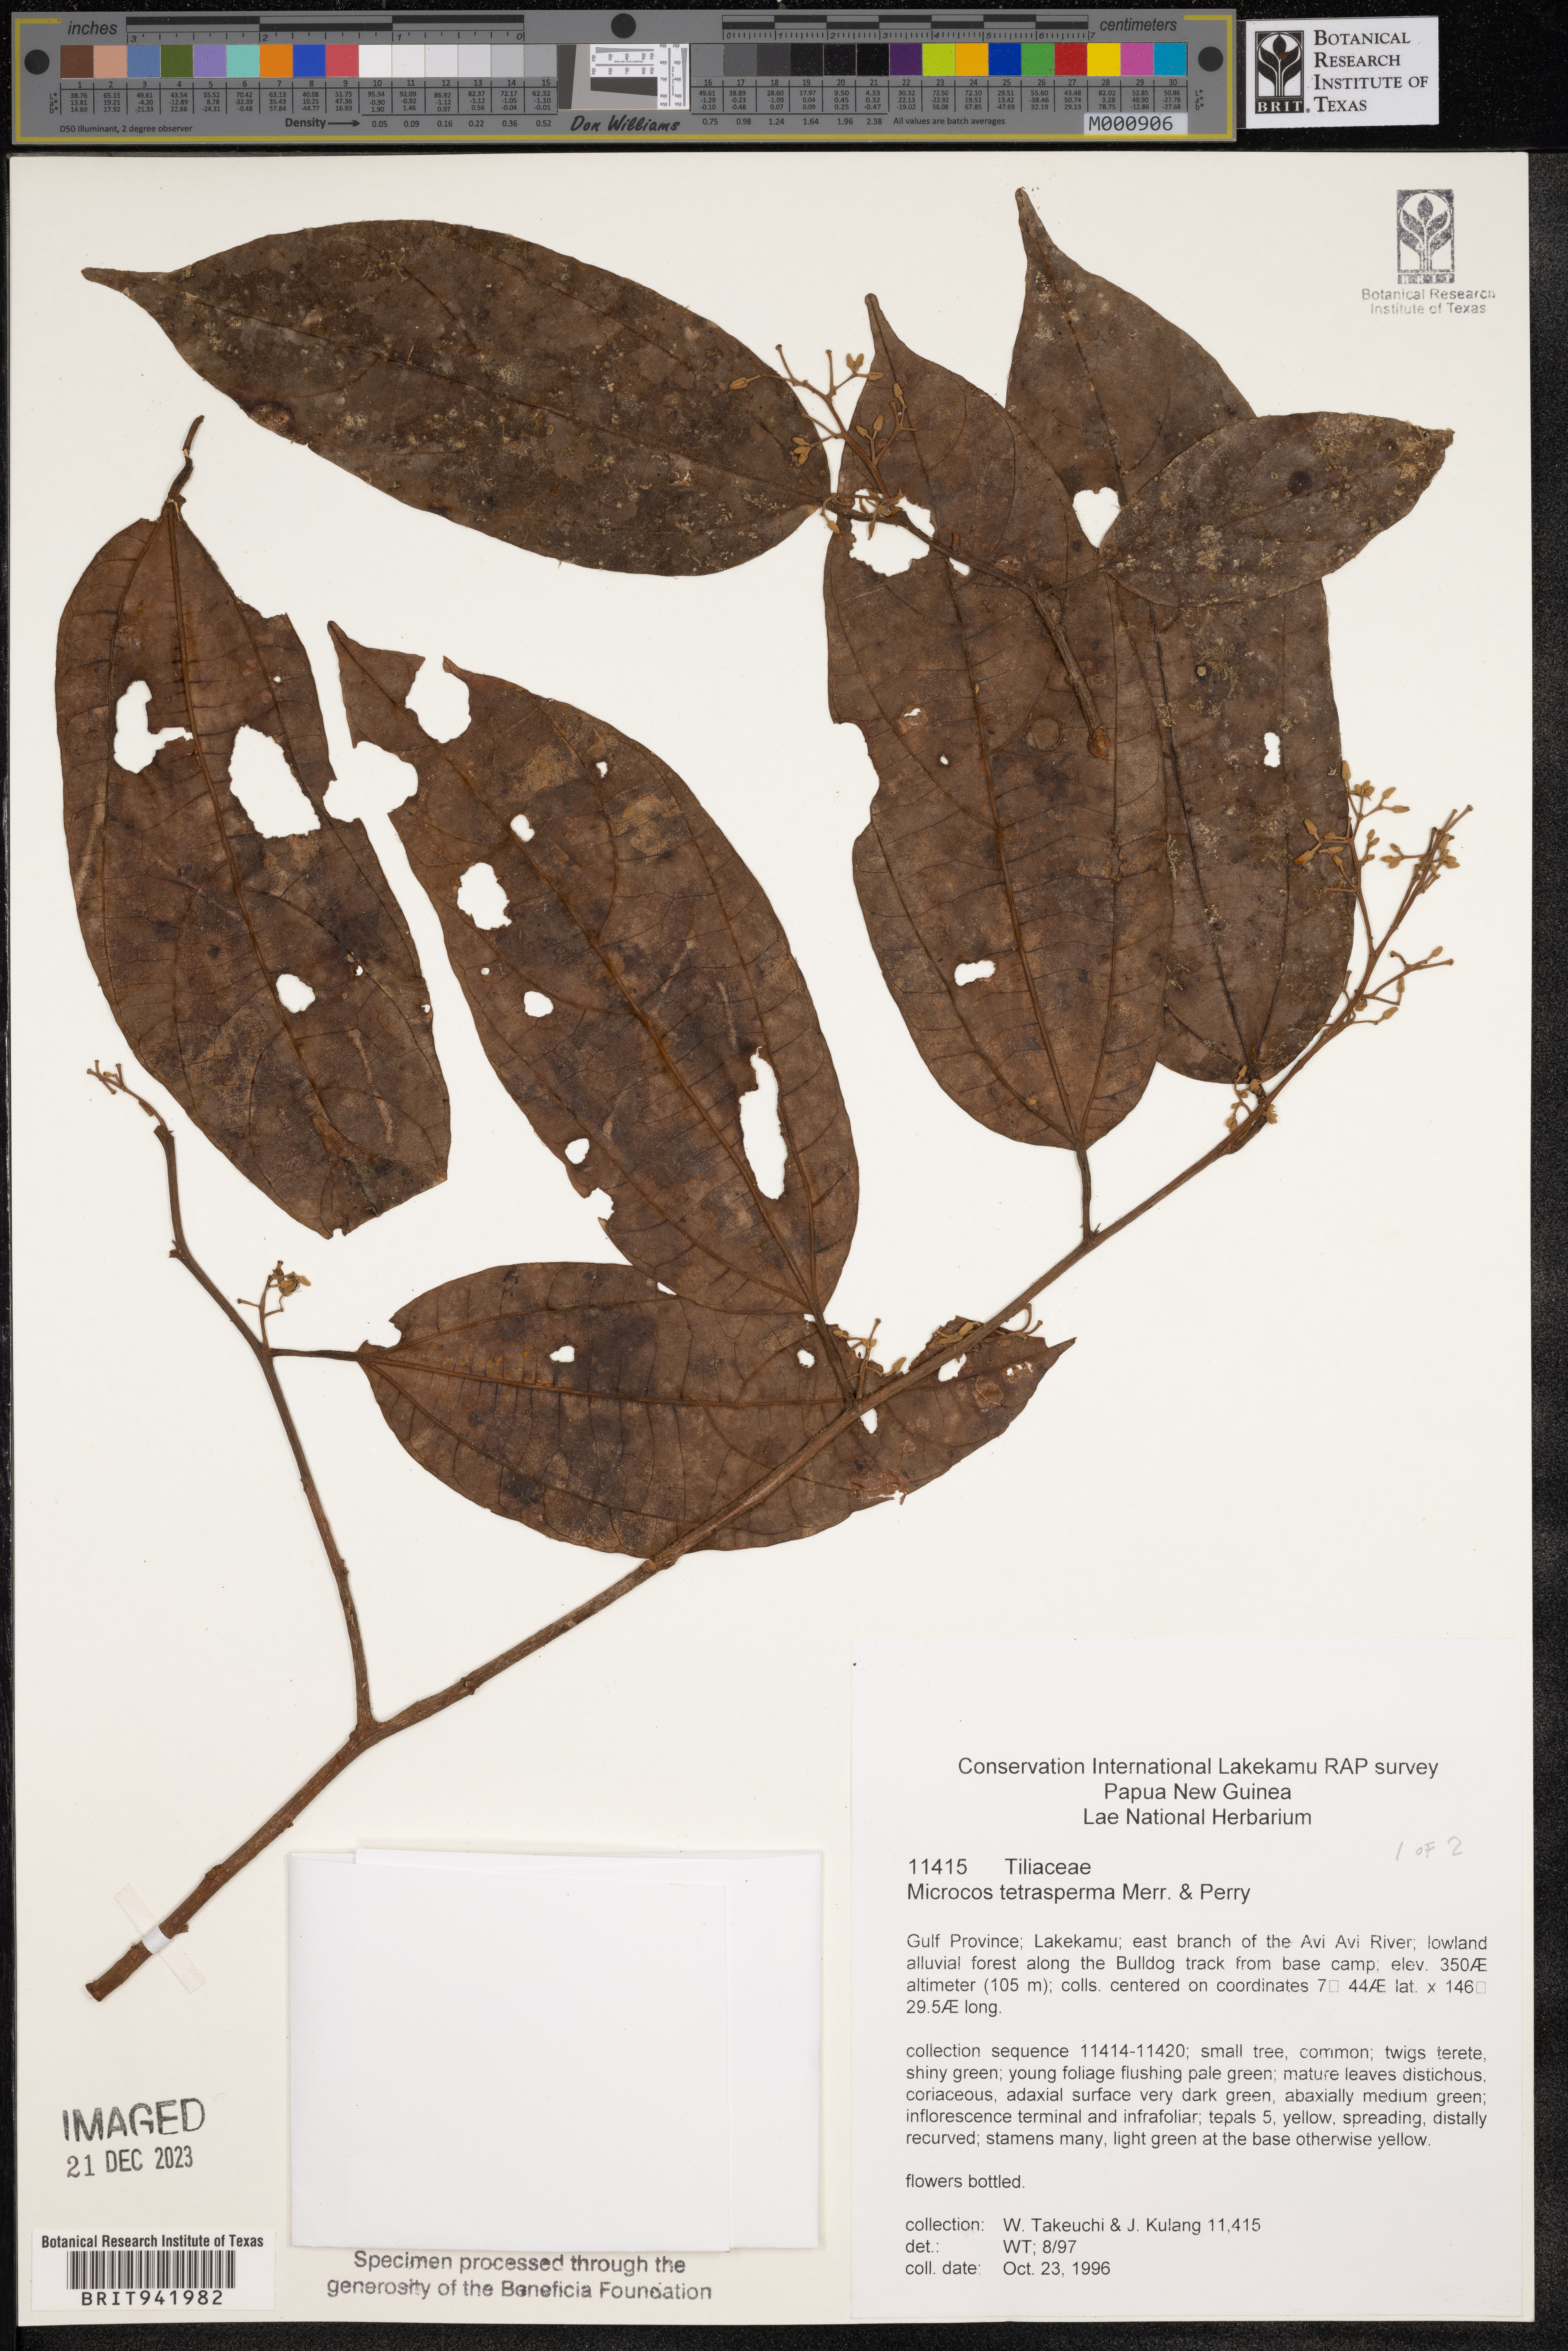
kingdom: Plantae
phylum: Tracheophyta
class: Magnoliopsida
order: Malvales
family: Malvaceae
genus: Microcos
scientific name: Microcos
